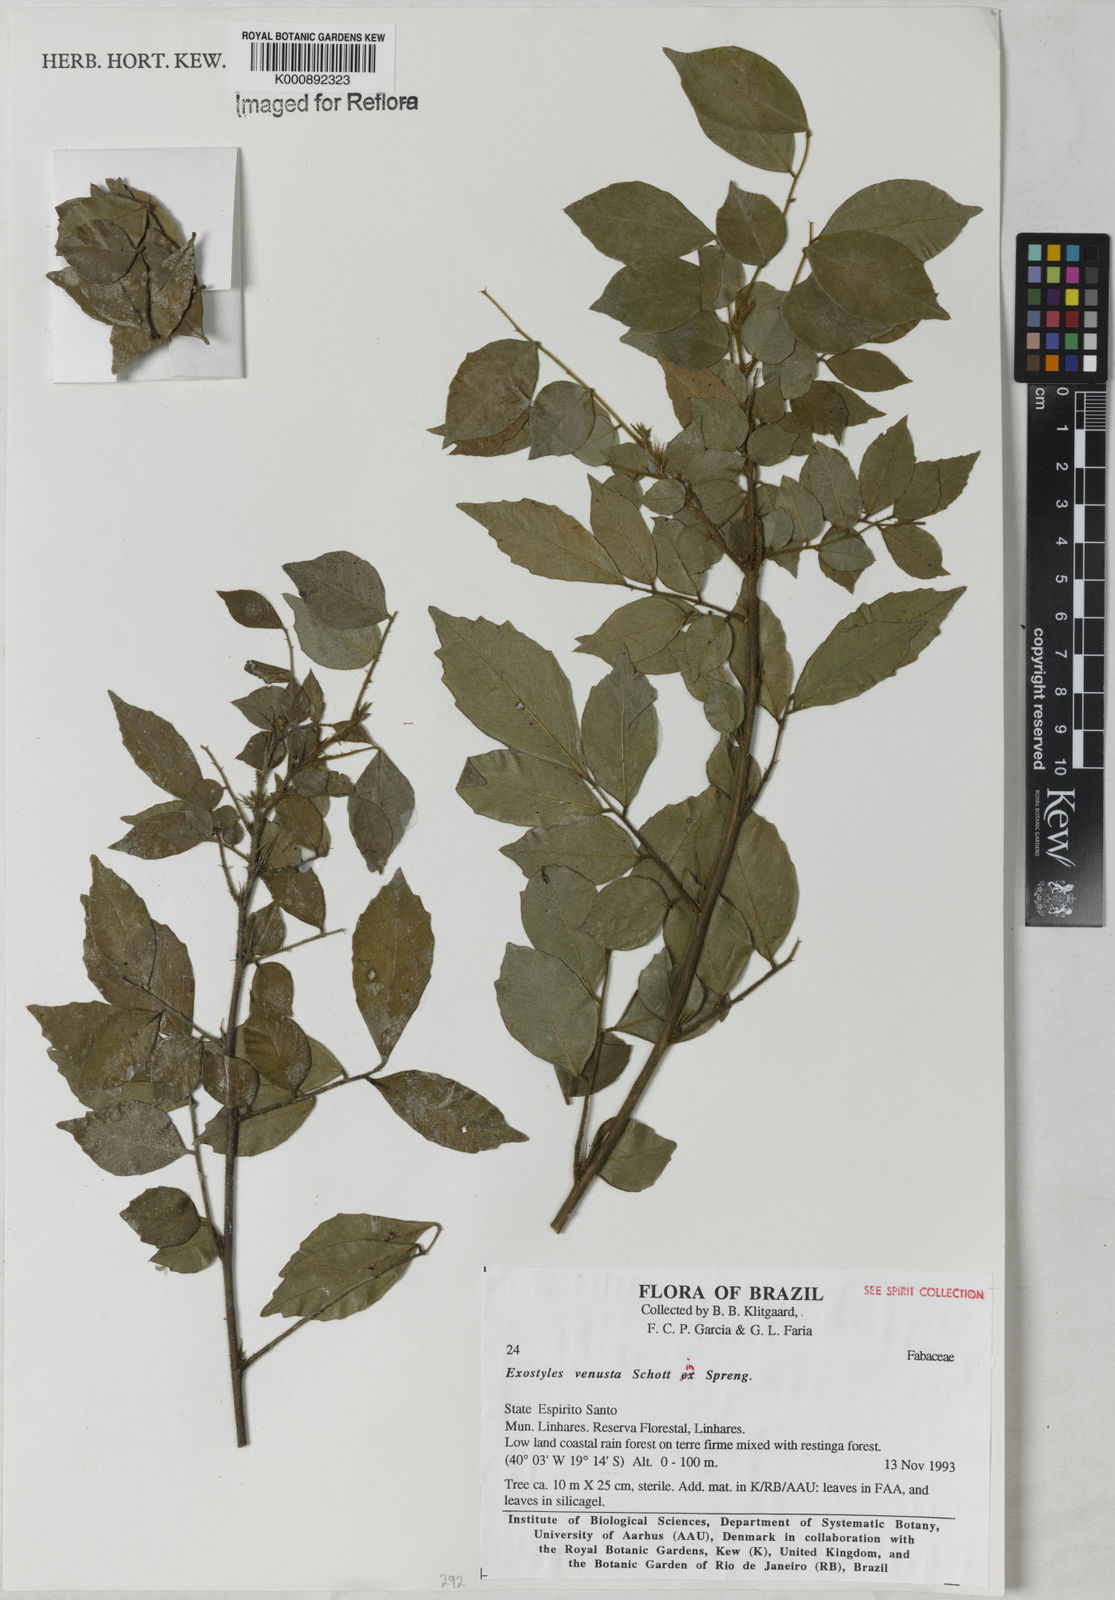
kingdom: Plantae
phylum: Tracheophyta
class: Magnoliopsida
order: Fabales
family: Fabaceae
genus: Exostyles
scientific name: Exostyles
